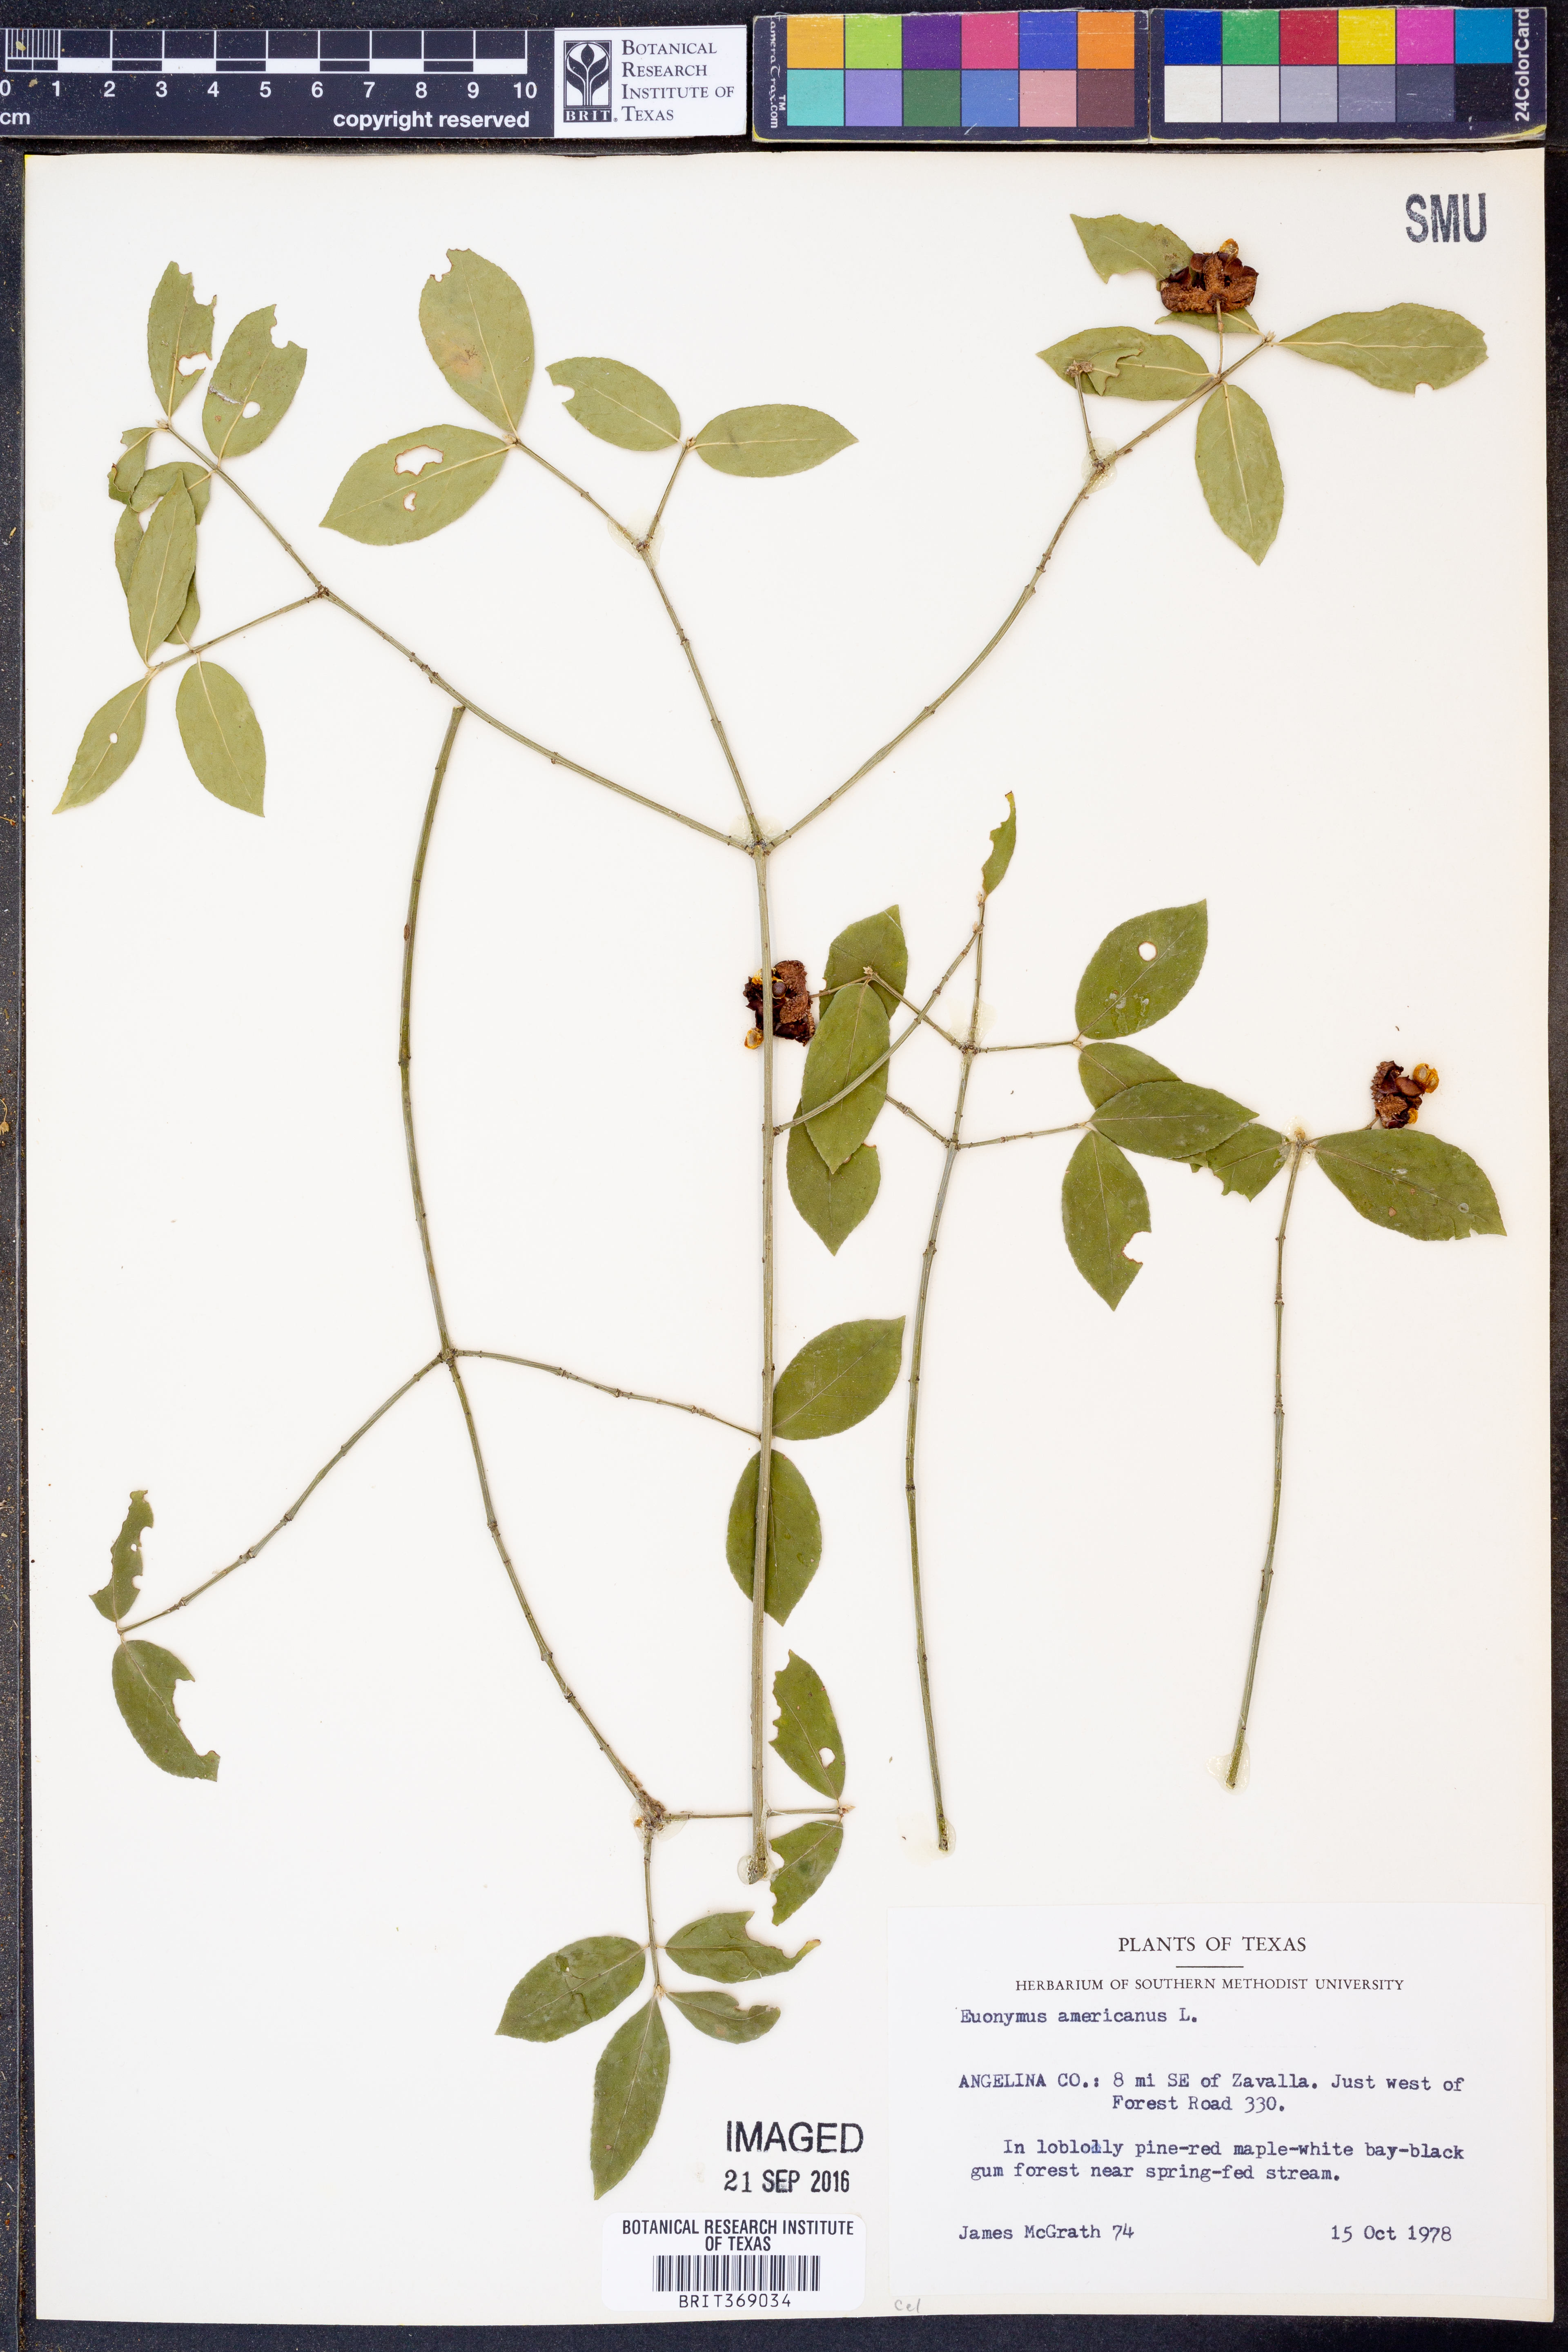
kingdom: Plantae
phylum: Tracheophyta
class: Magnoliopsida
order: Celastrales
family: Celastraceae
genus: Euonymus
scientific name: Euonymus americanus
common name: Bursting-heart
